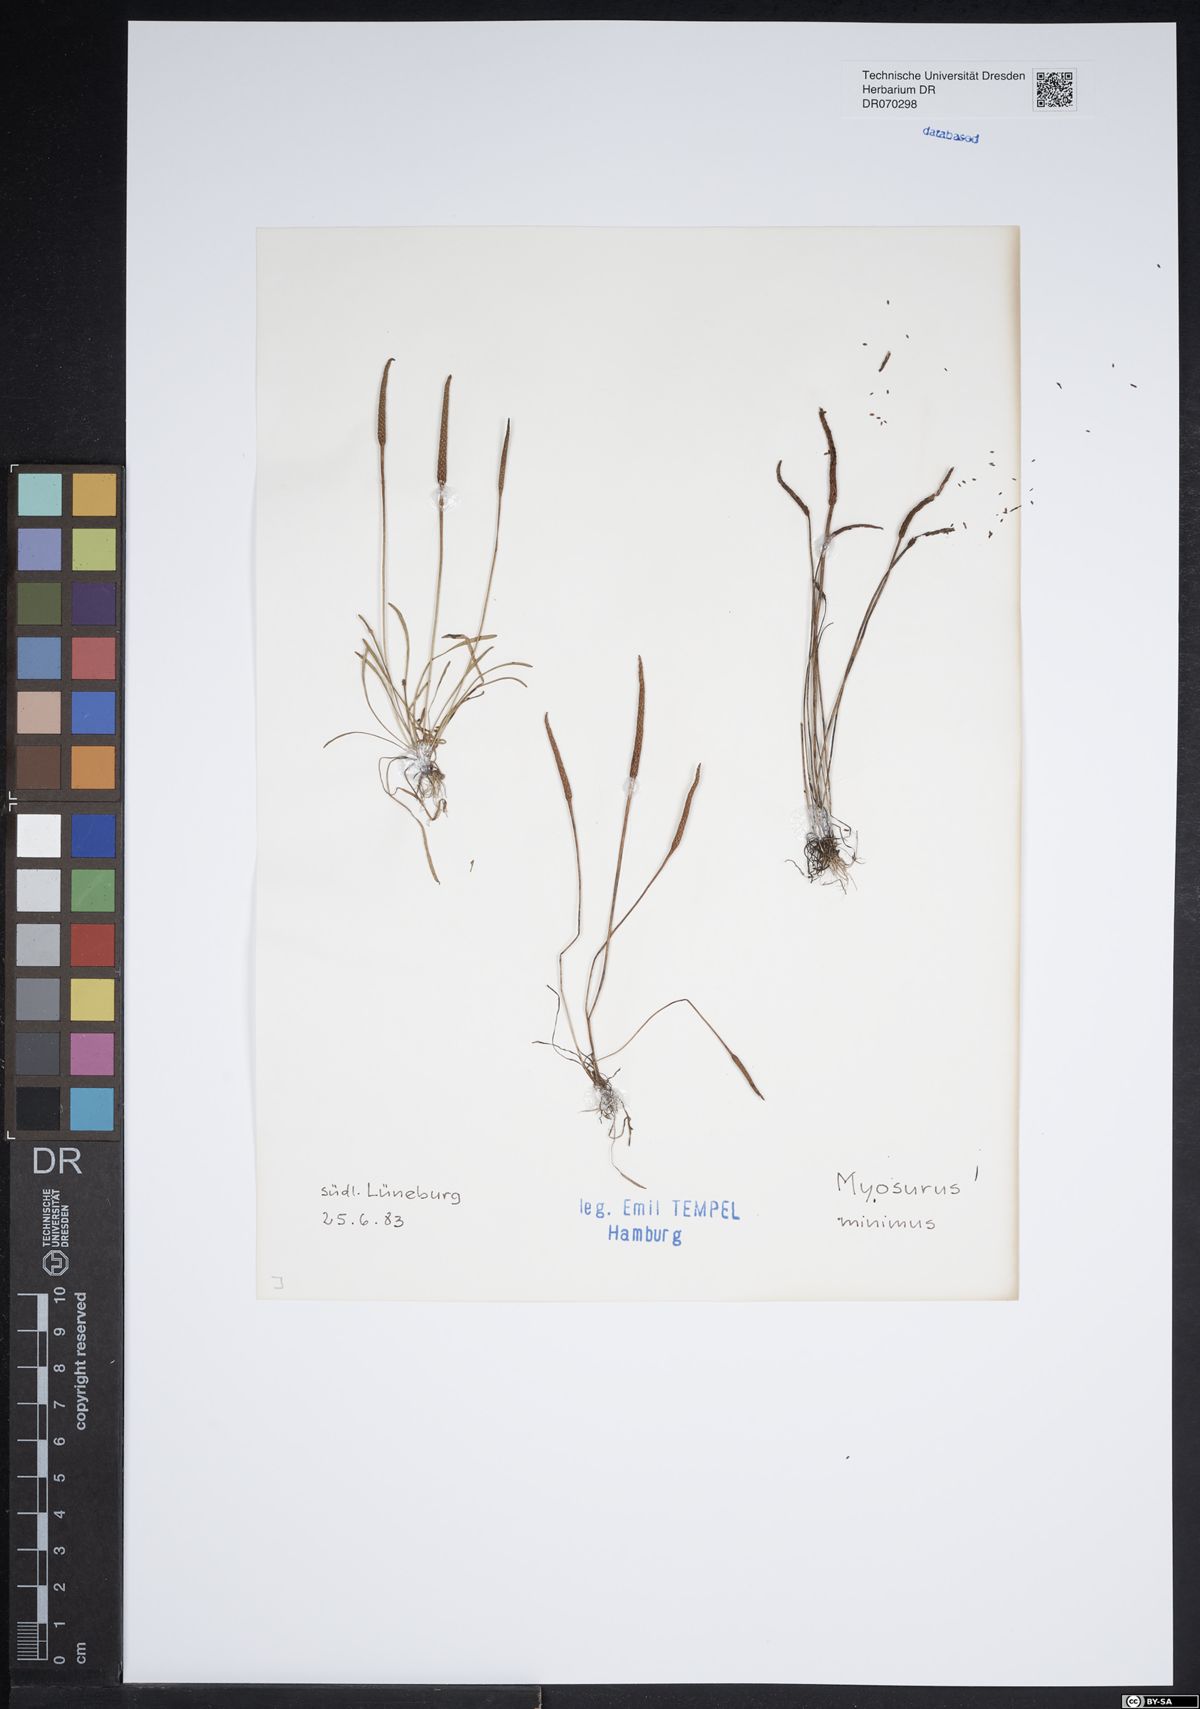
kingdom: Plantae
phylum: Tracheophyta
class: Magnoliopsida
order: Ranunculales
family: Ranunculaceae
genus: Myosurus
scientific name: Myosurus minimus
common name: Mousetail
